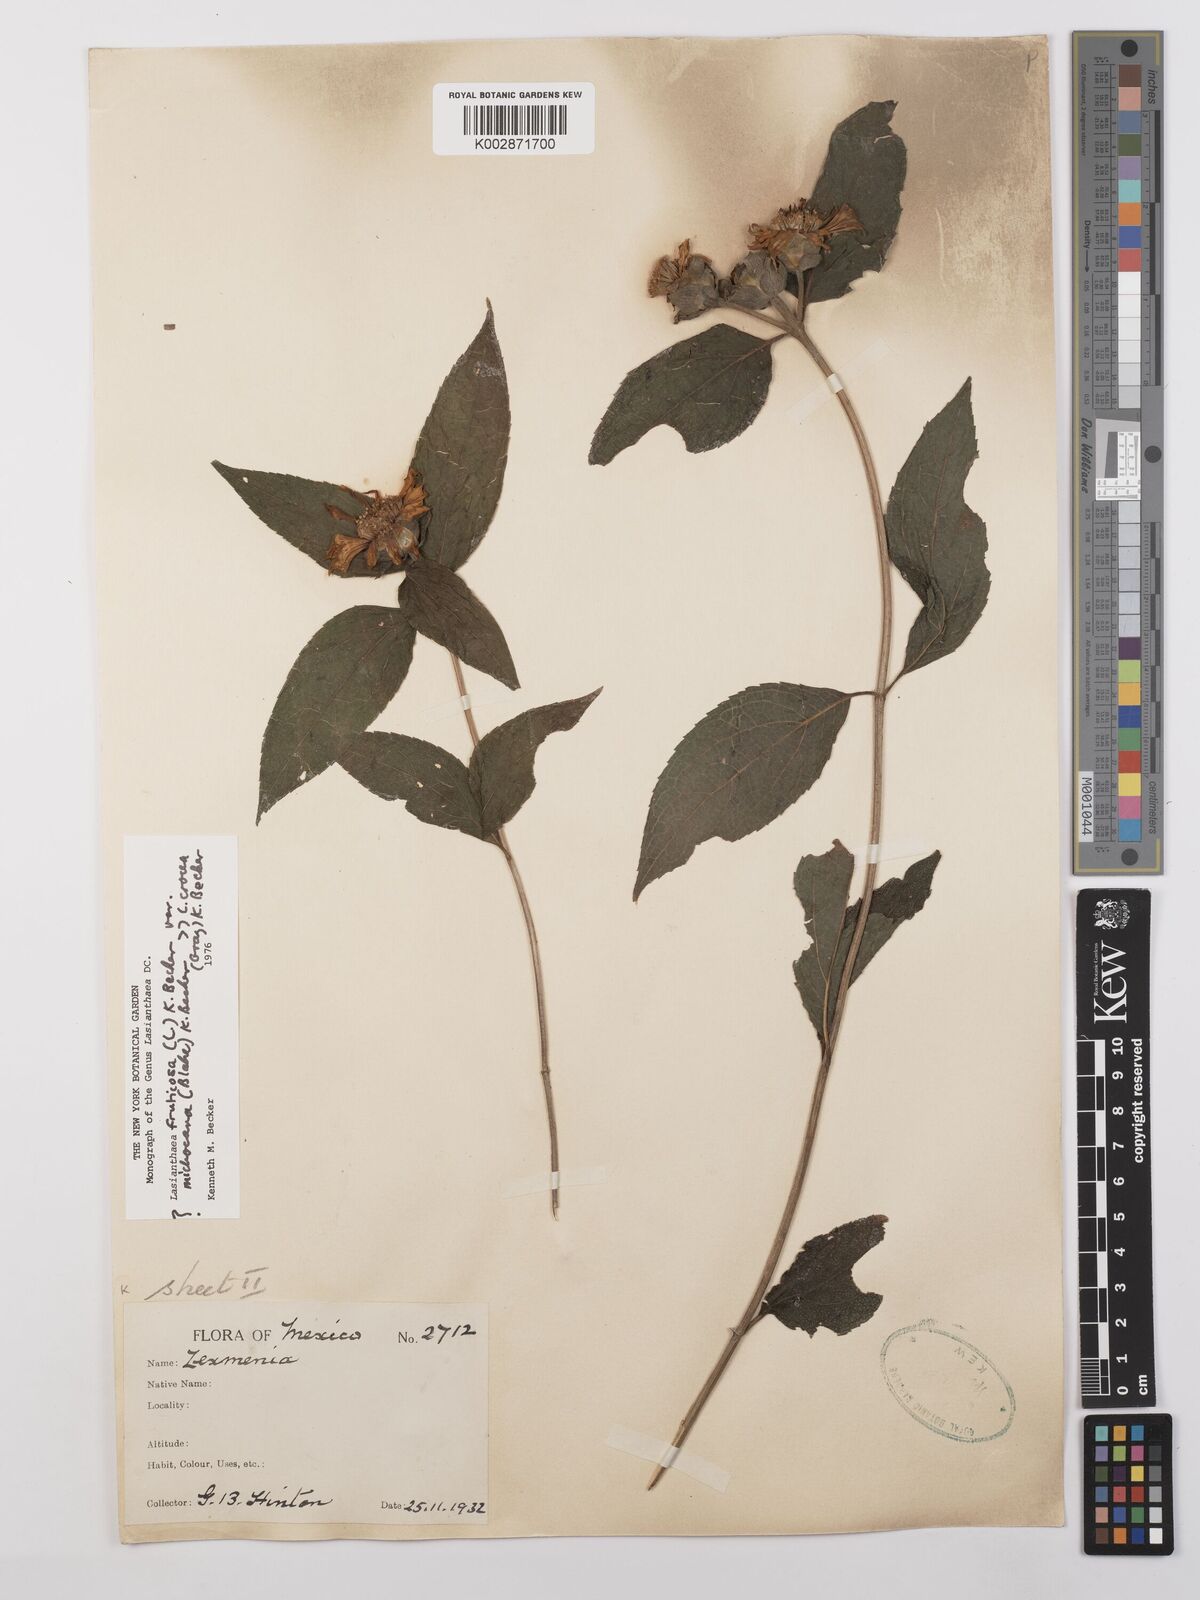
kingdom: Plantae
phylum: Tracheophyta
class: Magnoliopsida
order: Asterales
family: Asteraceae
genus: Lasianthaea
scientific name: Lasianthaea fruticosa
